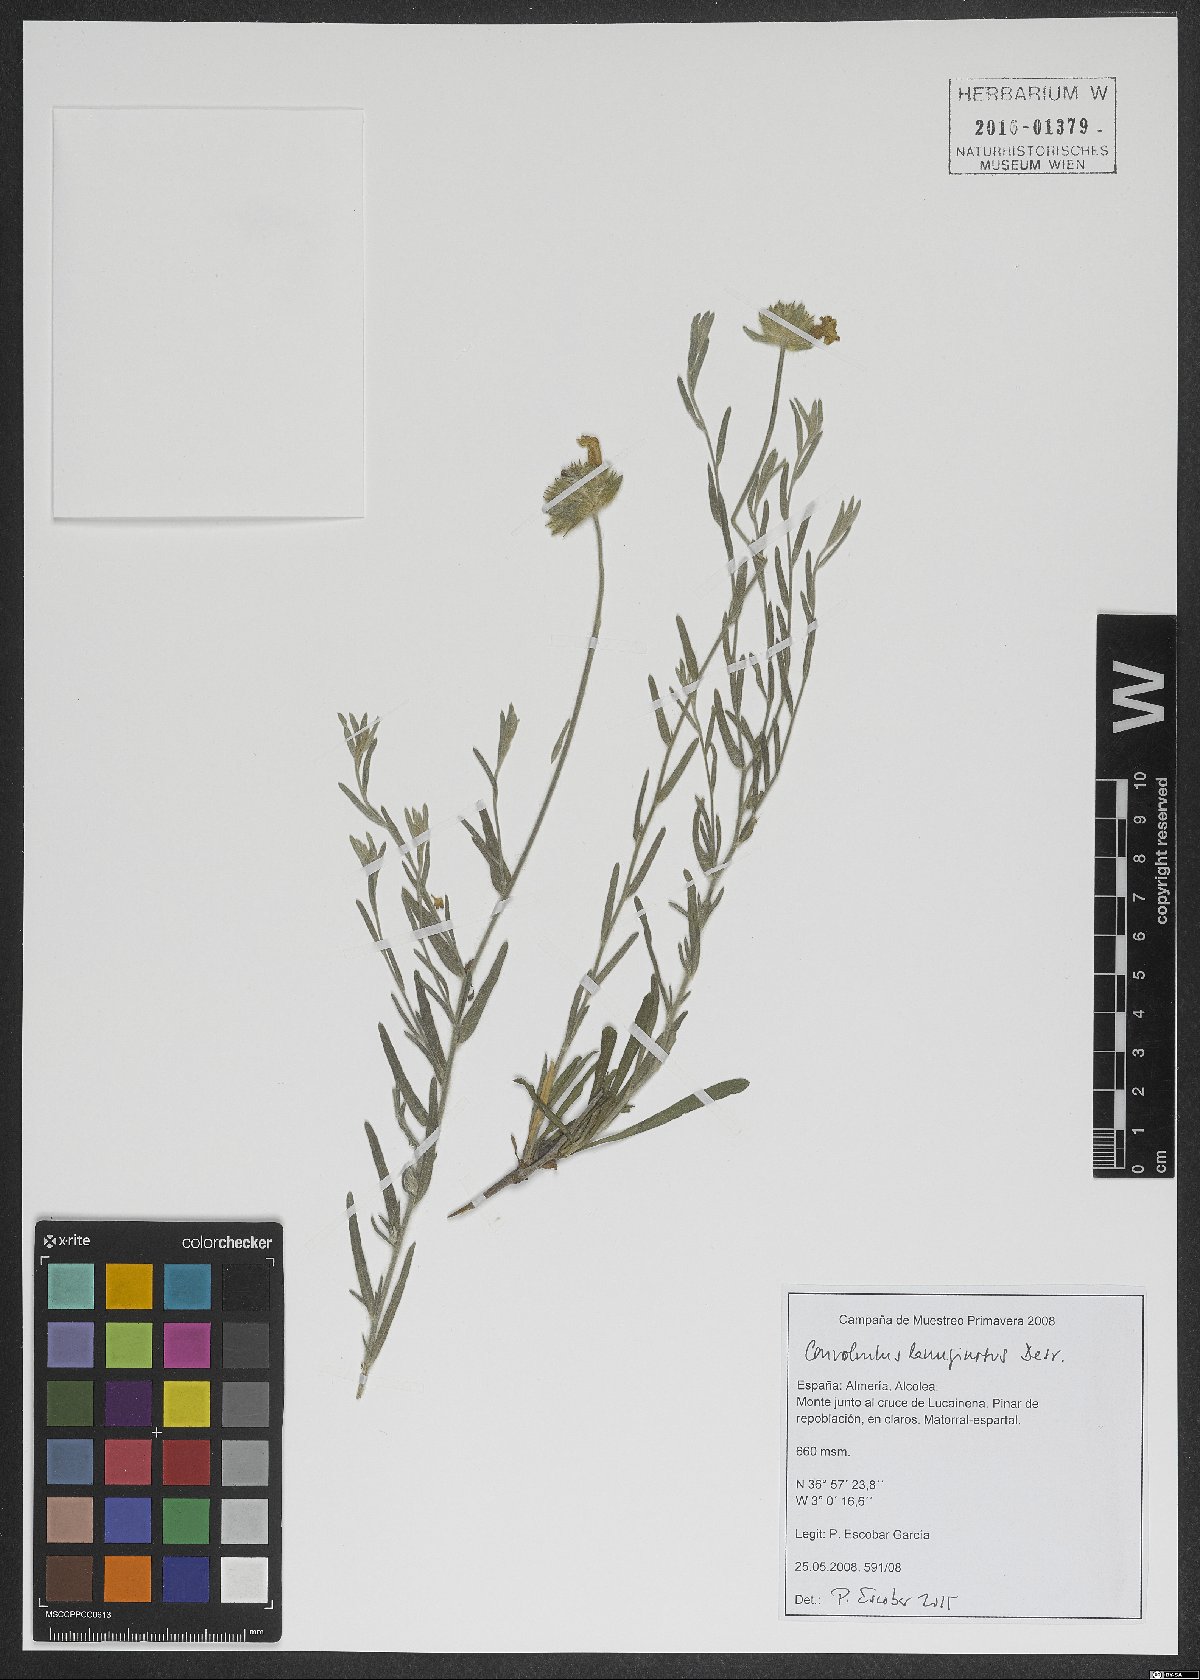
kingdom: Plantae
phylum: Tracheophyta
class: Magnoliopsida
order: Solanales
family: Convolvulaceae
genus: Convolvulus
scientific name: Convolvulus lanuginosus
